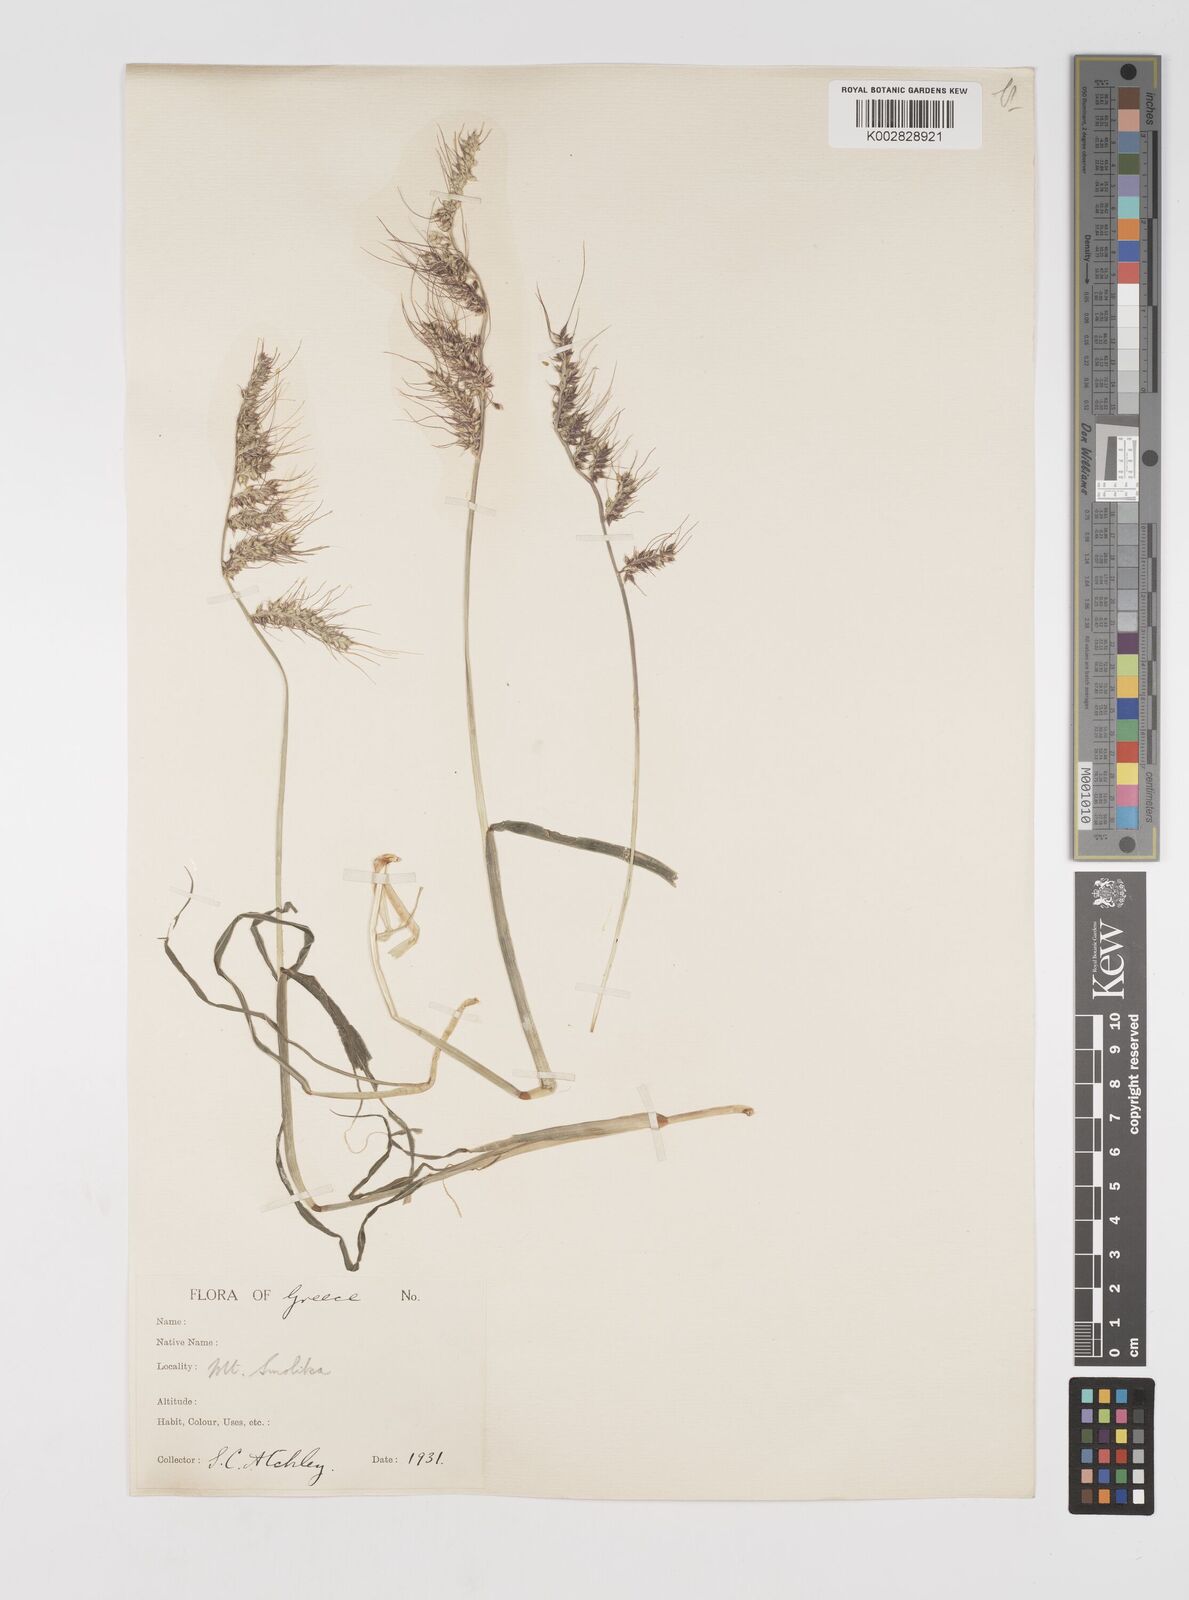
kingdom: Plantae
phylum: Tracheophyta
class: Liliopsida
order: Poales
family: Poaceae
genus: Echinochloa
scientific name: Echinochloa crus-galli
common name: Cockspur
